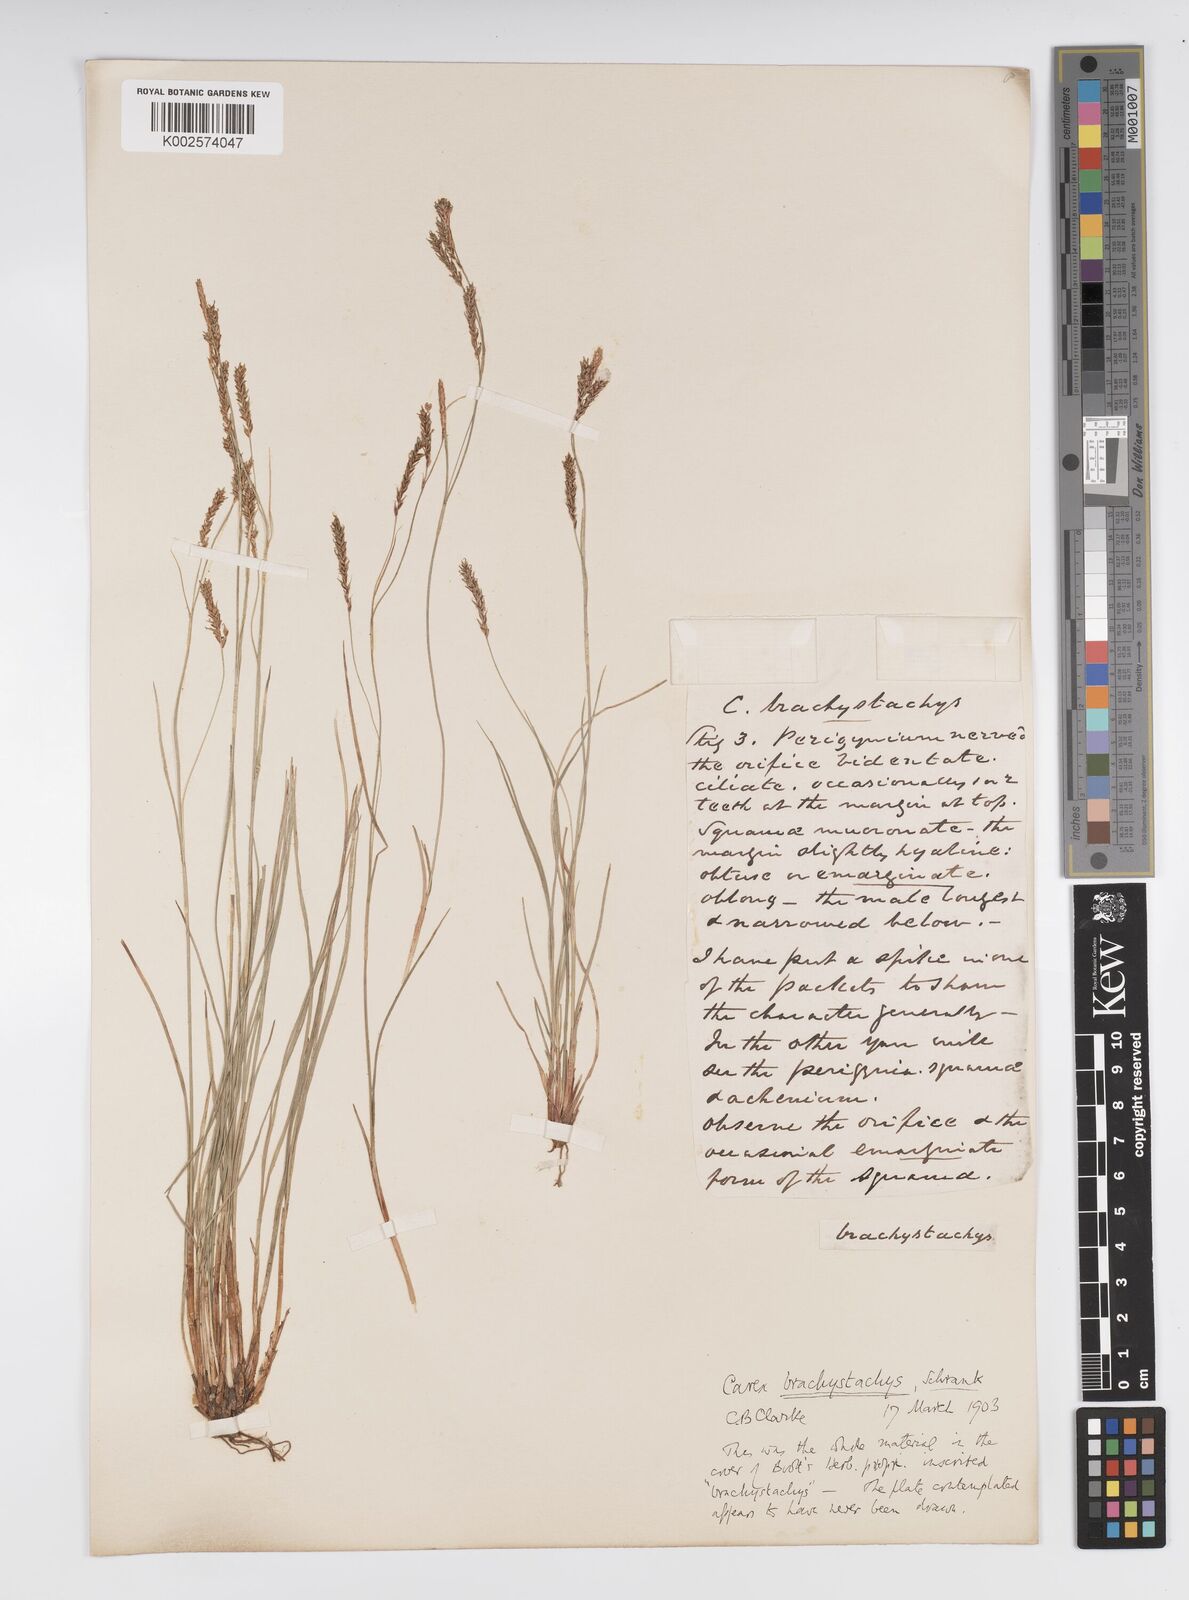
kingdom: Plantae
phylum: Tracheophyta
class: Liliopsida
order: Poales
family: Cyperaceae
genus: Carex
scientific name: Carex brachystachys
